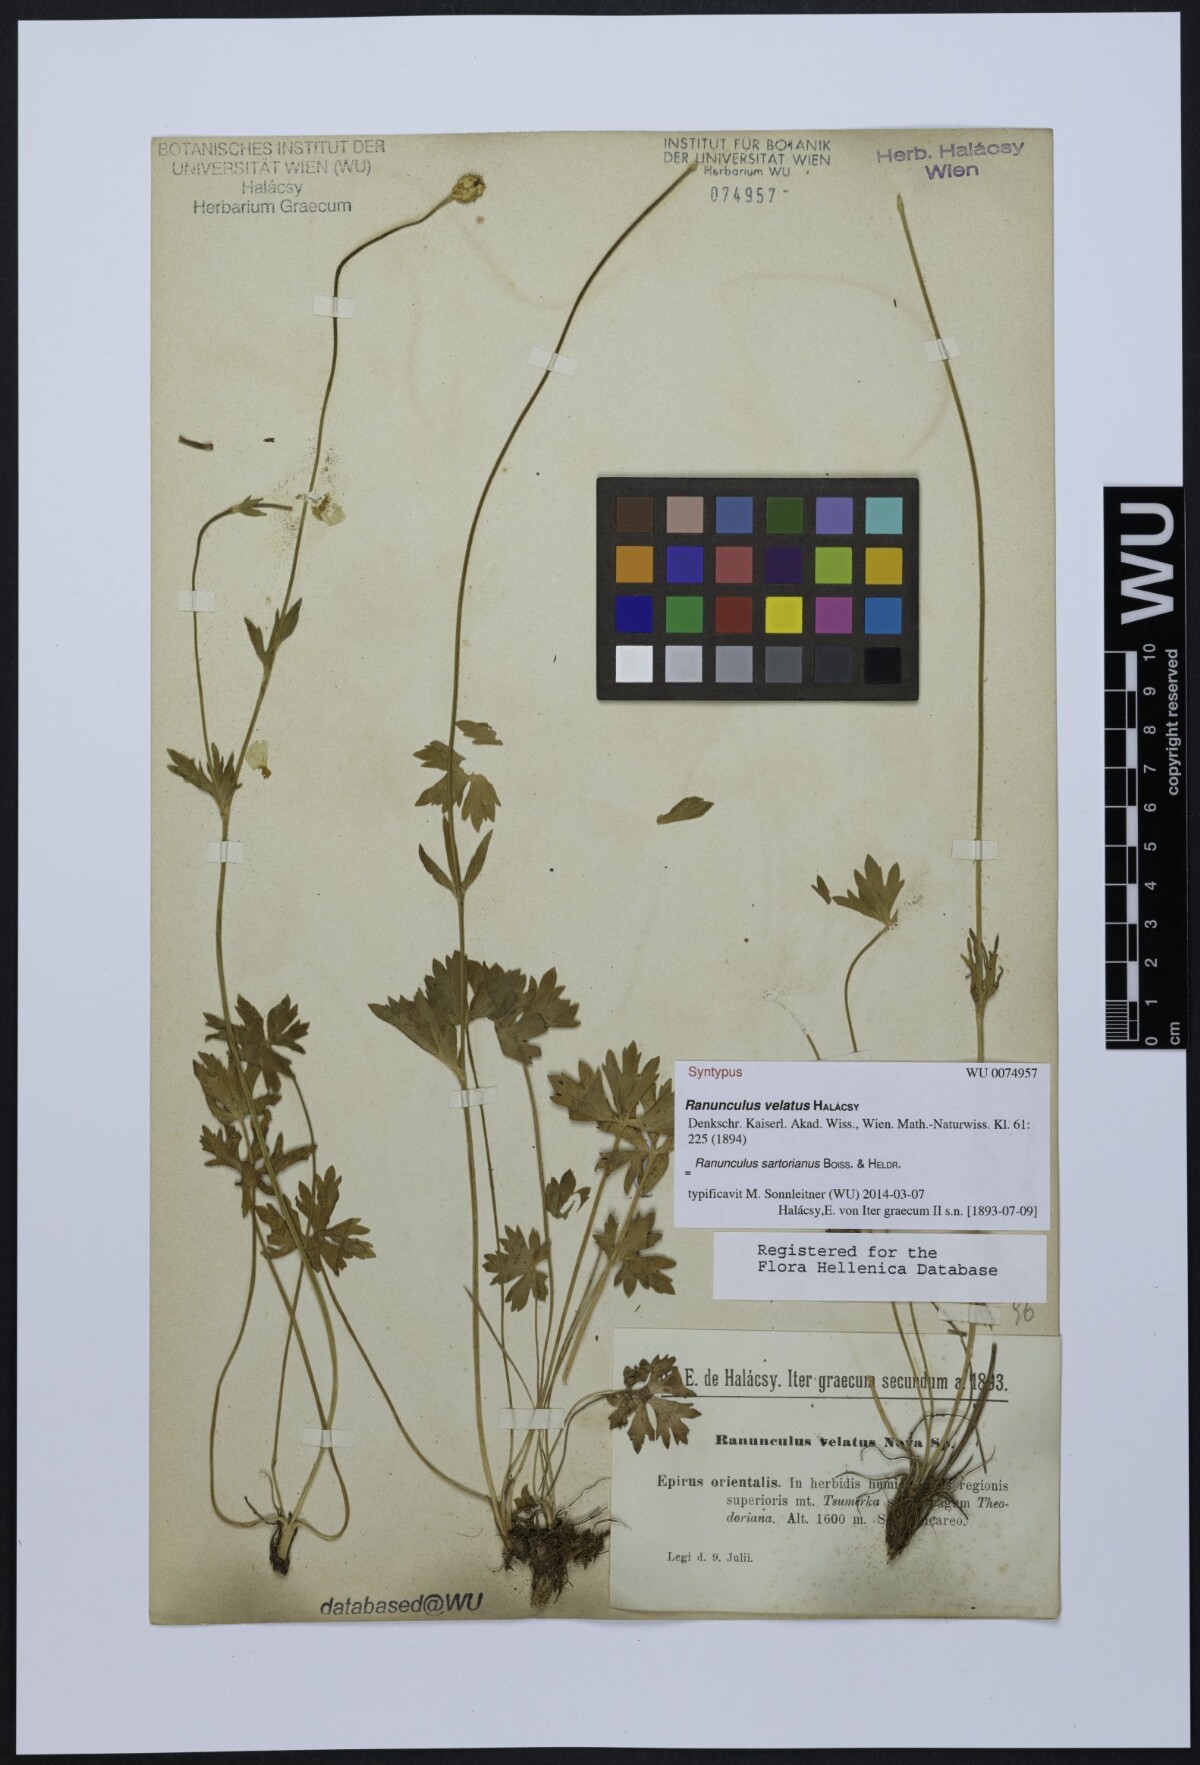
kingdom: Plantae
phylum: Tracheophyta
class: Magnoliopsida
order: Ranunculales
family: Ranunculaceae
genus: Ranunculus
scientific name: Ranunculus sartorianus
